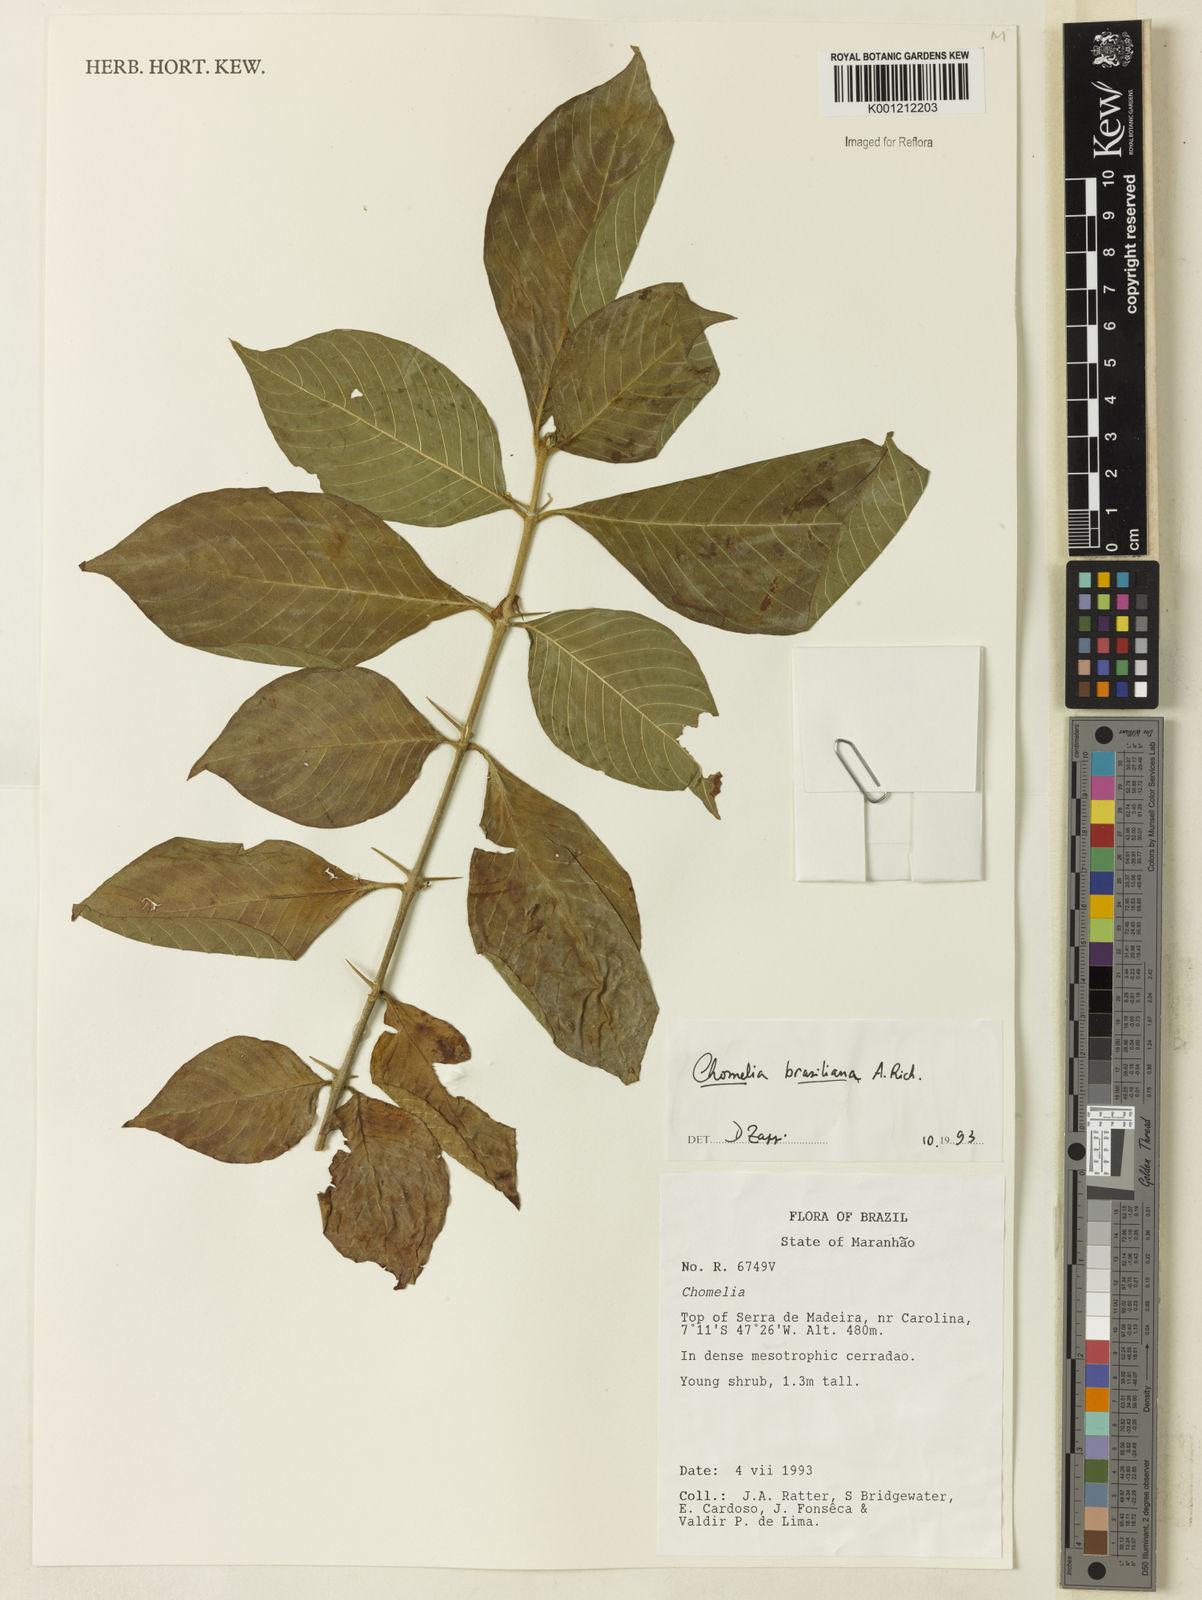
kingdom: Plantae
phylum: Tracheophyta
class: Magnoliopsida
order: Gentianales
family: Rubiaceae
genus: Chomelia
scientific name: Chomelia brasiliana
